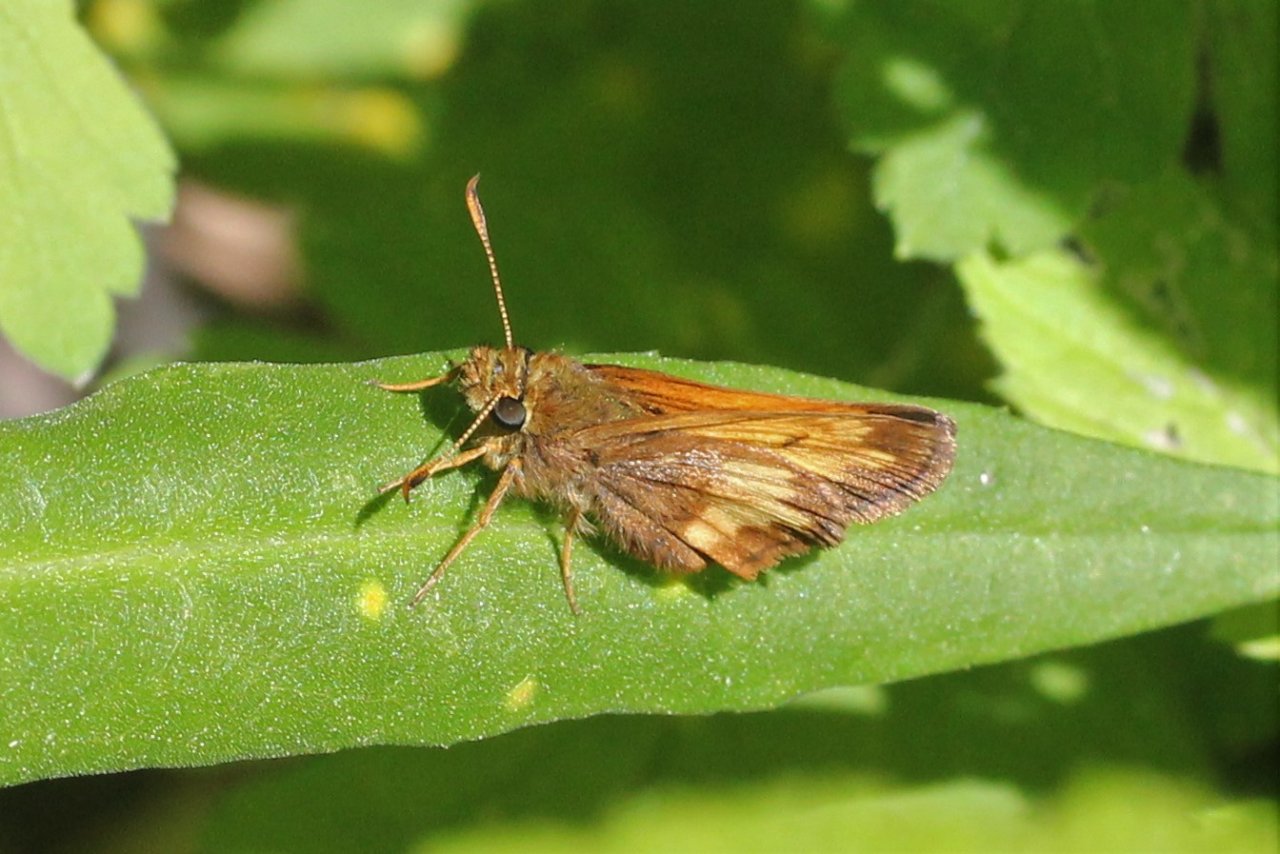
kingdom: Animalia
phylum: Arthropoda
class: Insecta
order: Lepidoptera
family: Hesperiidae
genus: Lon
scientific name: Lon hobomok
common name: Hobomok Skipper
